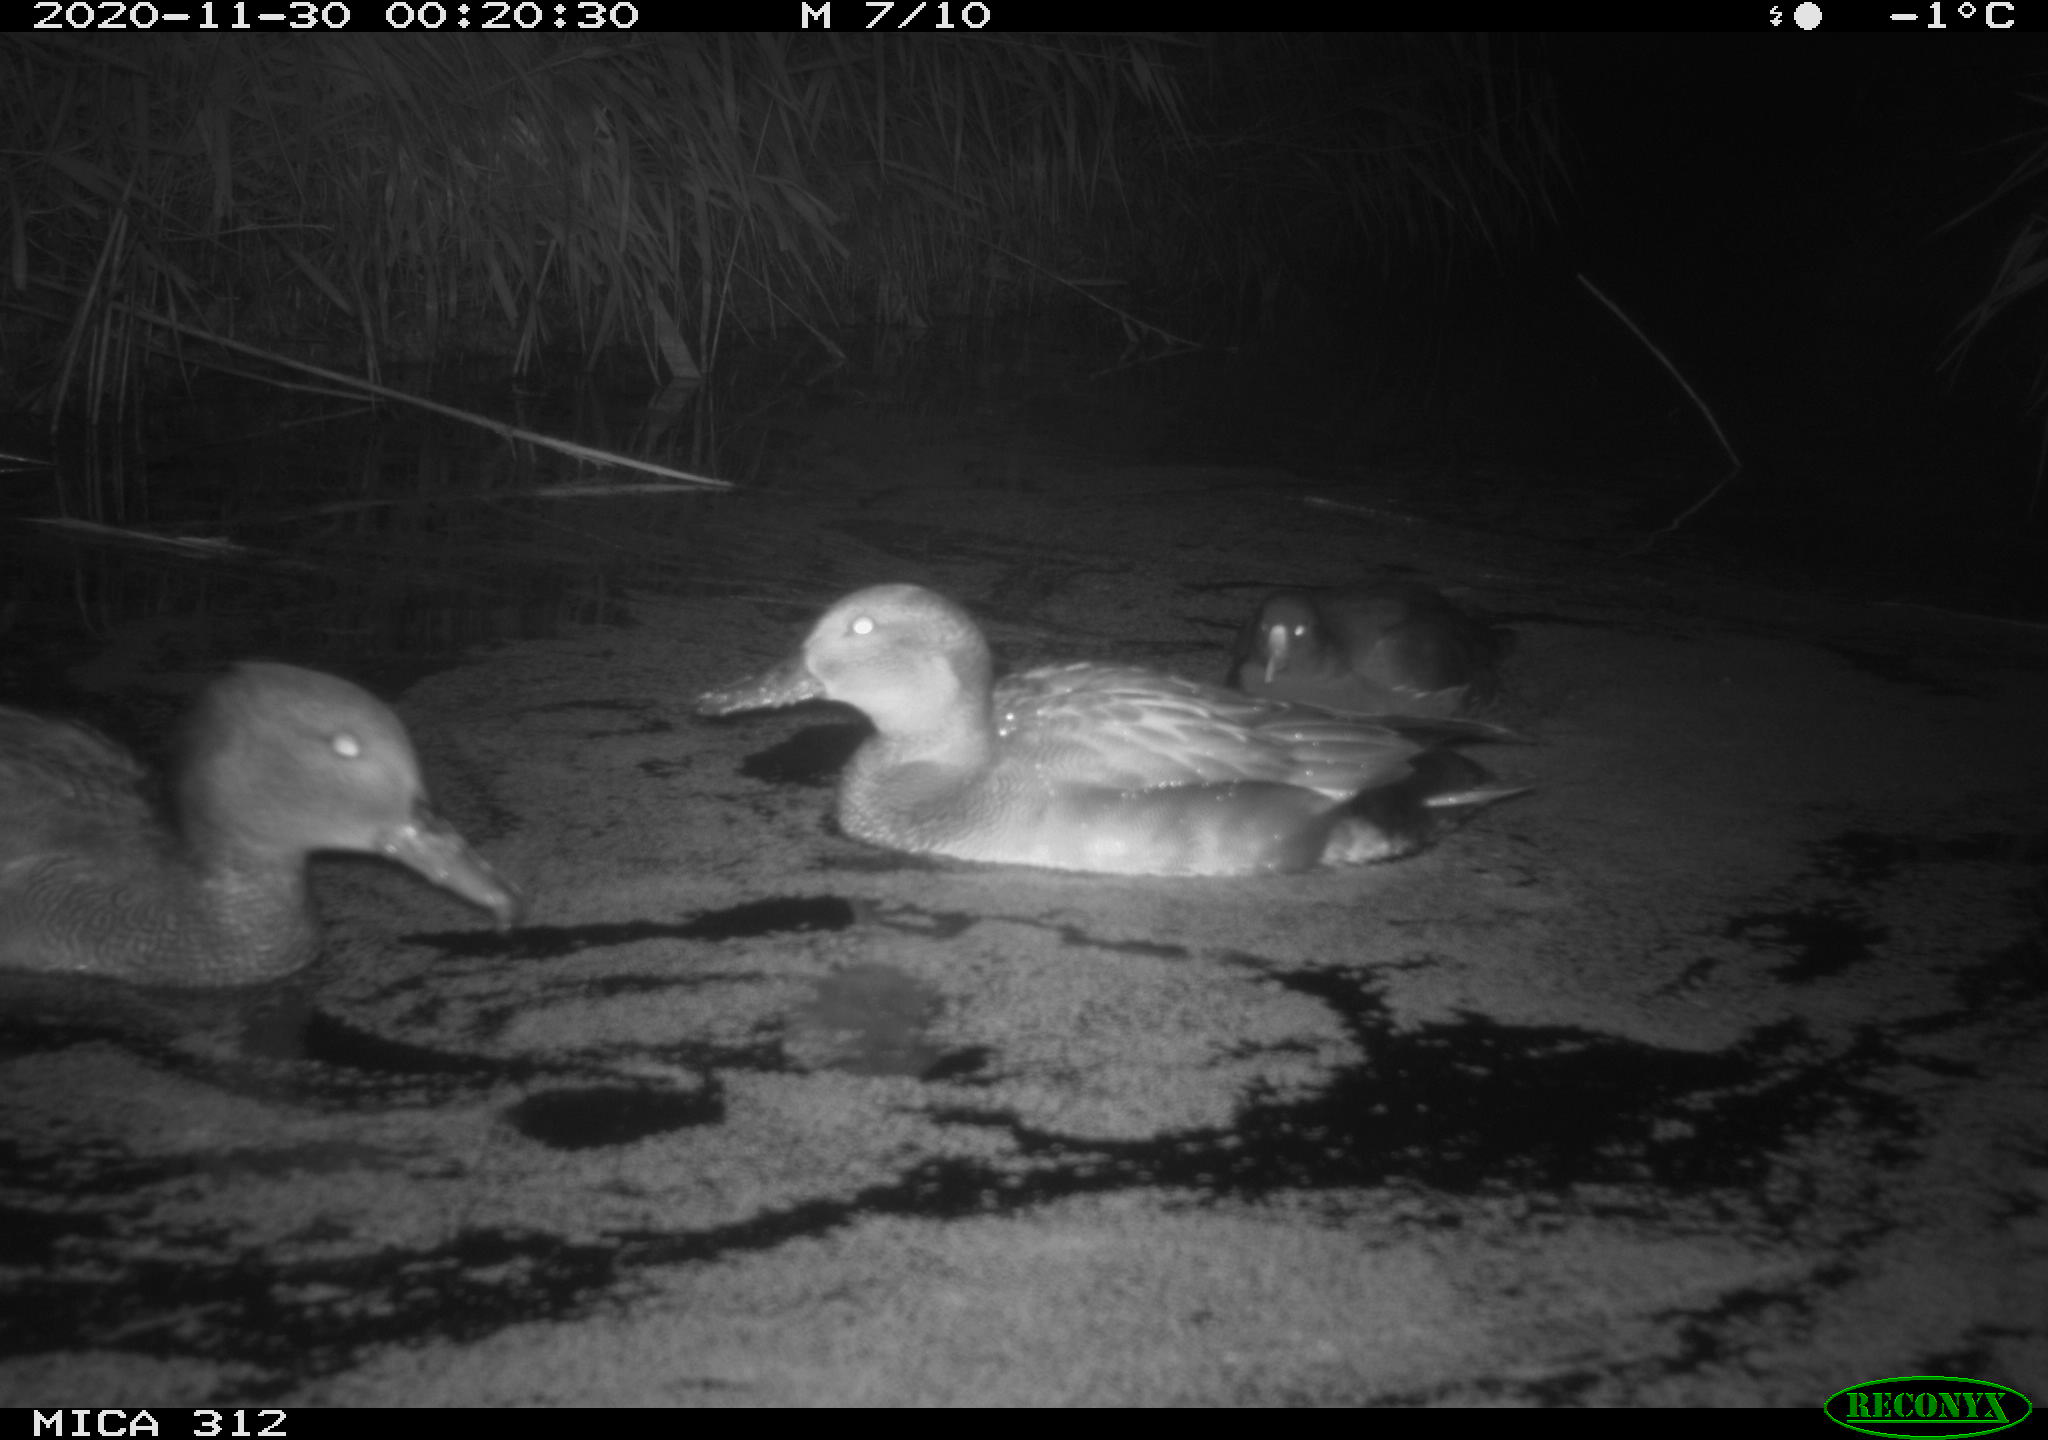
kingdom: Animalia
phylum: Chordata
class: Aves
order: Gruiformes
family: Rallidae
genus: Gallinula
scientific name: Gallinula chloropus
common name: Common moorhen
